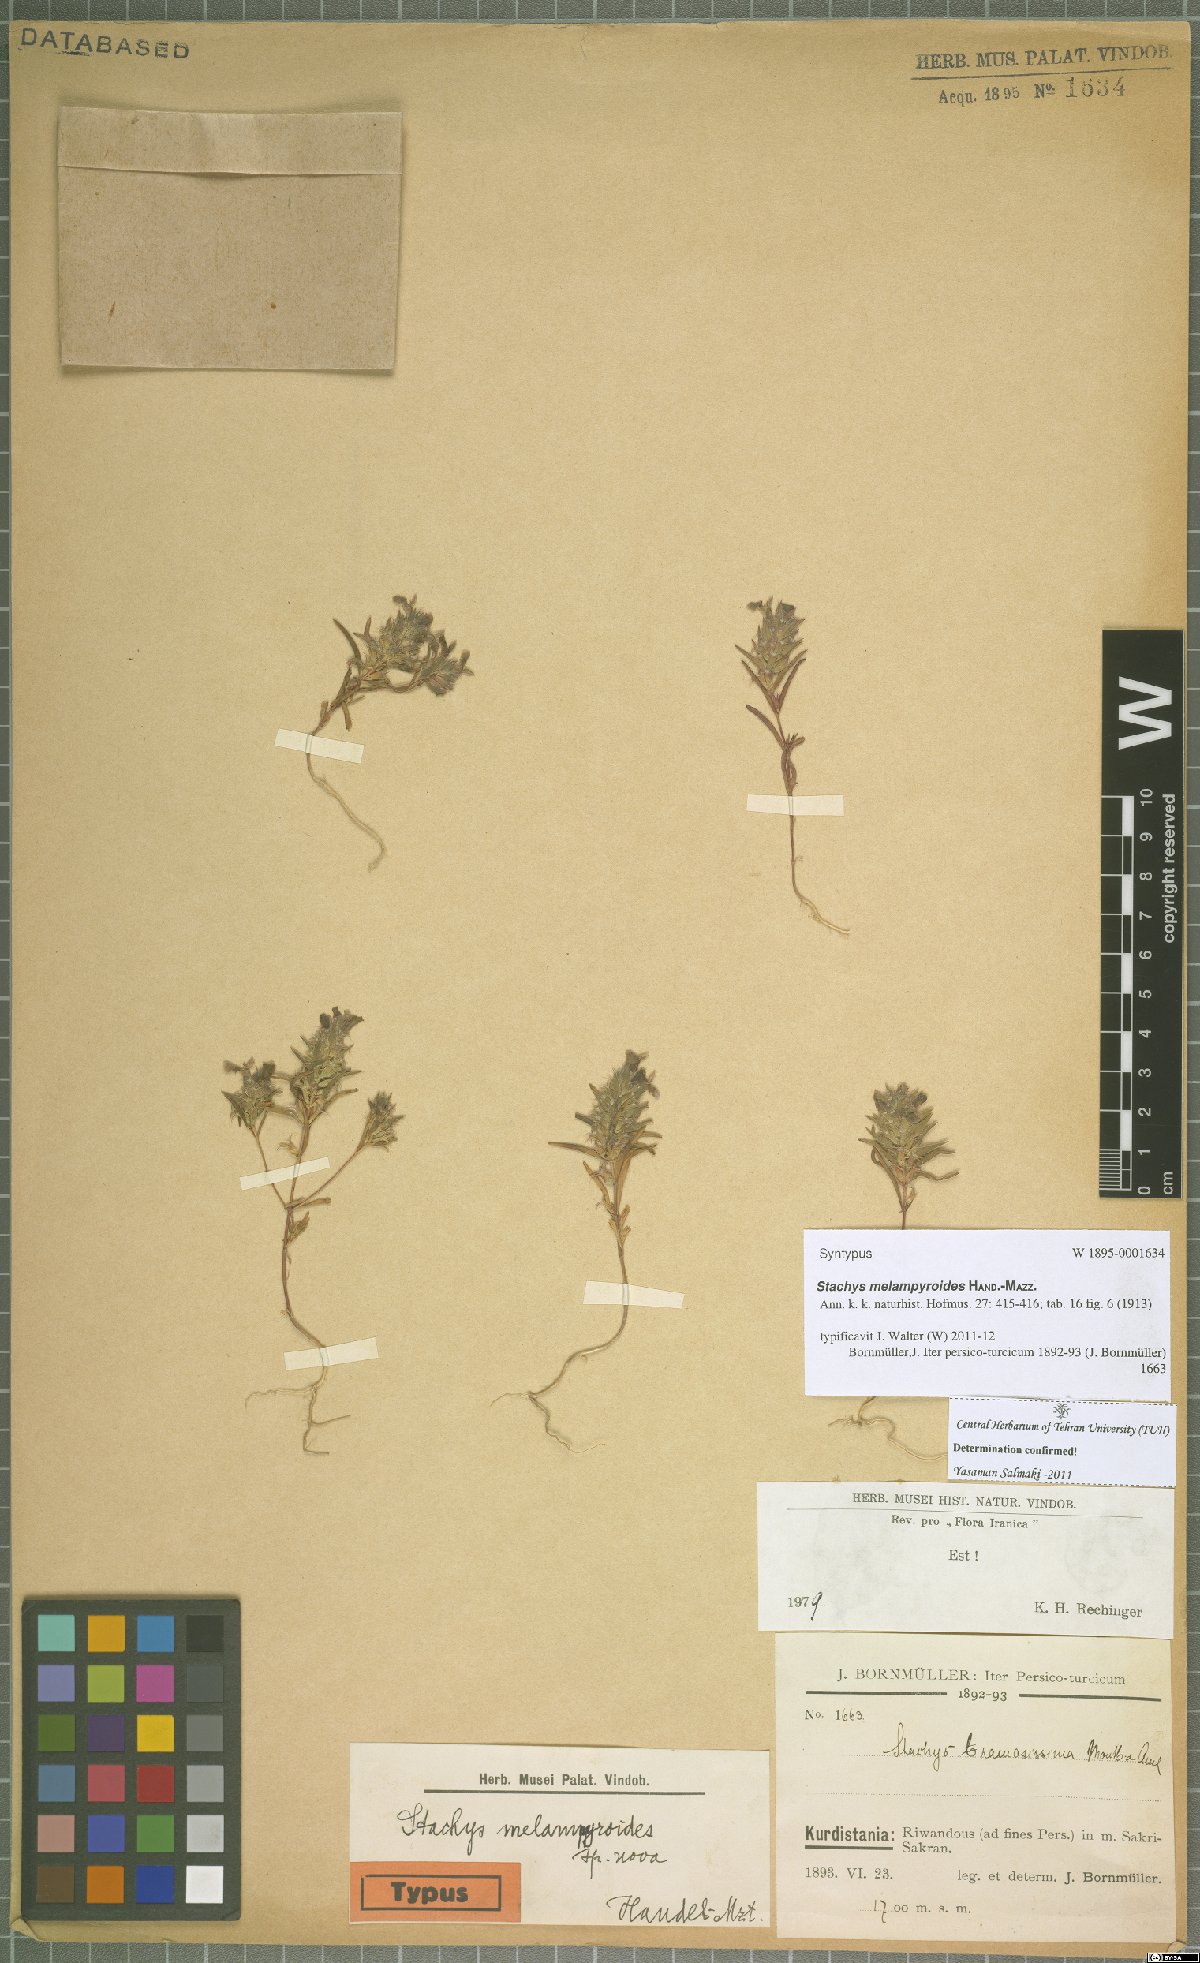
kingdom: Plantae
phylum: Tracheophyta
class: Magnoliopsida
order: Lamiales
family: Lamiaceae
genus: Stachys
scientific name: Stachys melampyroides
